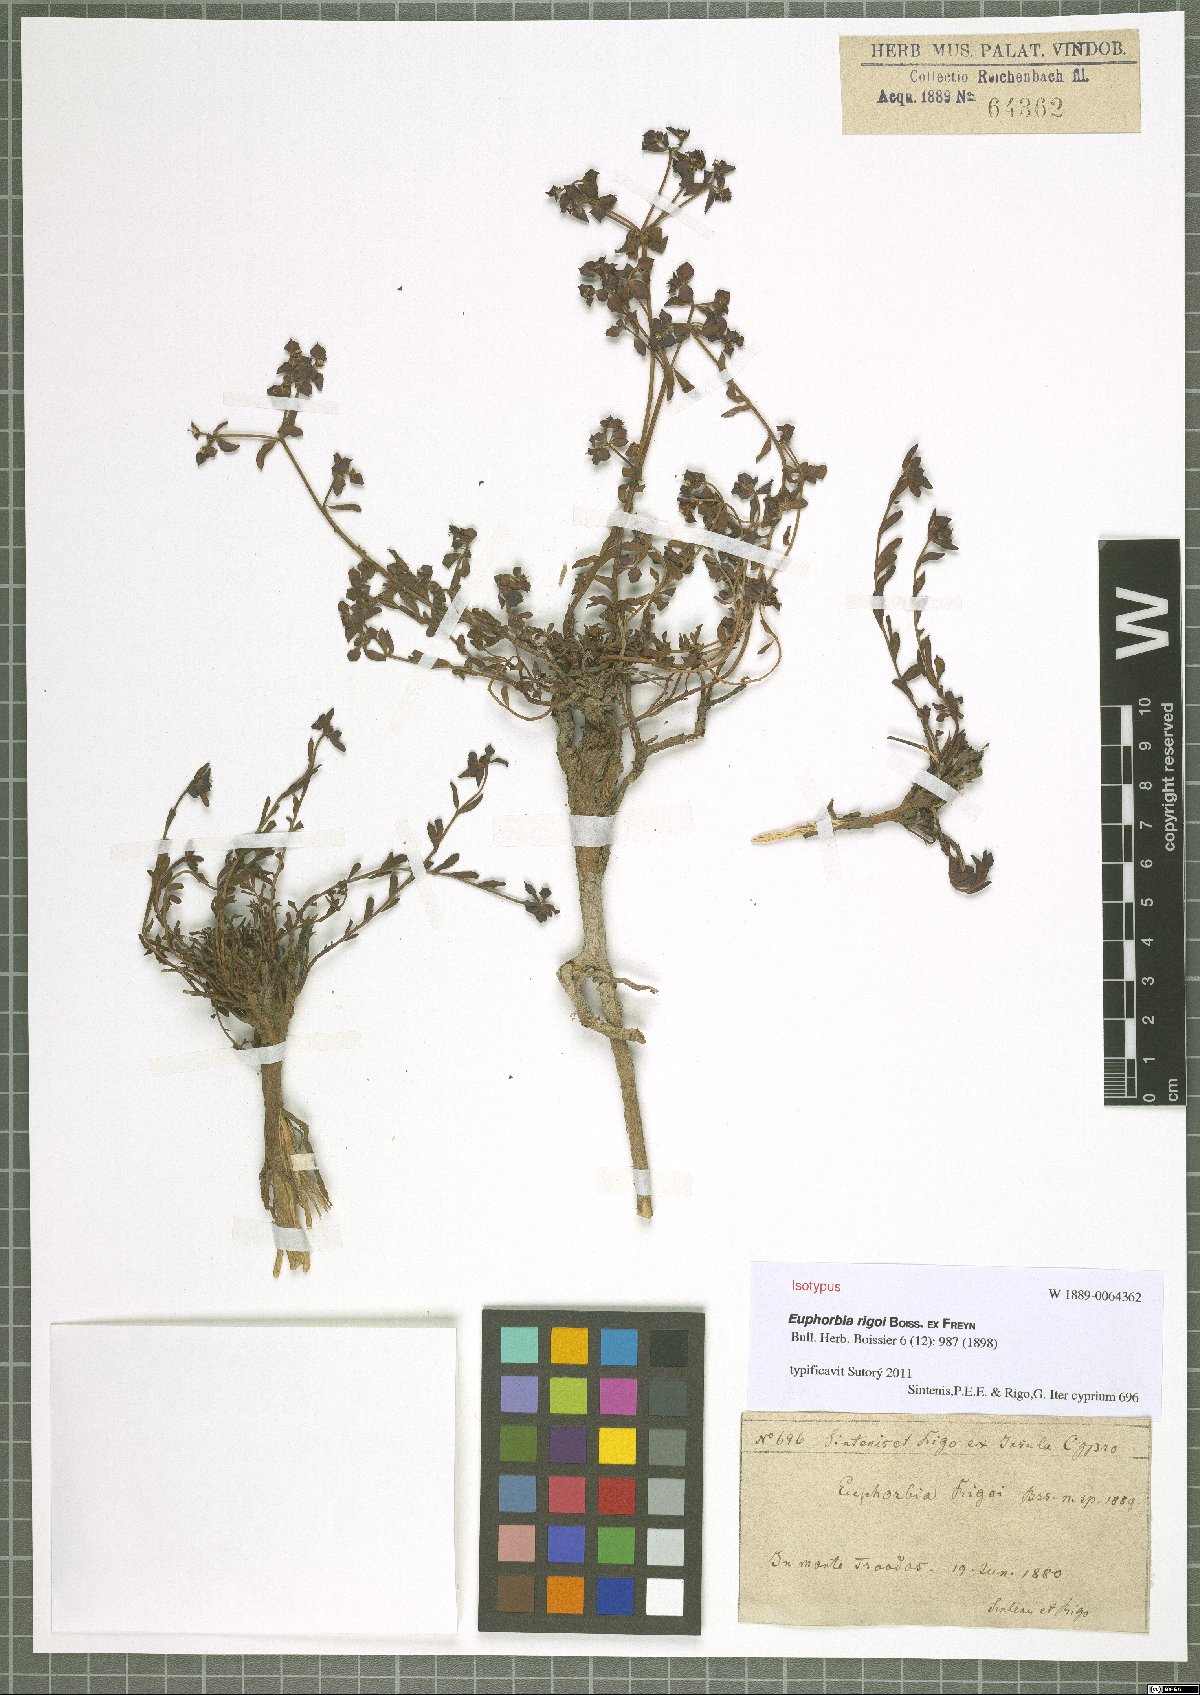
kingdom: Plantae
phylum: Tracheophyta
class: Magnoliopsida
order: Malpighiales
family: Euphorbiaceae
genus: Euphorbia
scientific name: Euphorbia cassia
